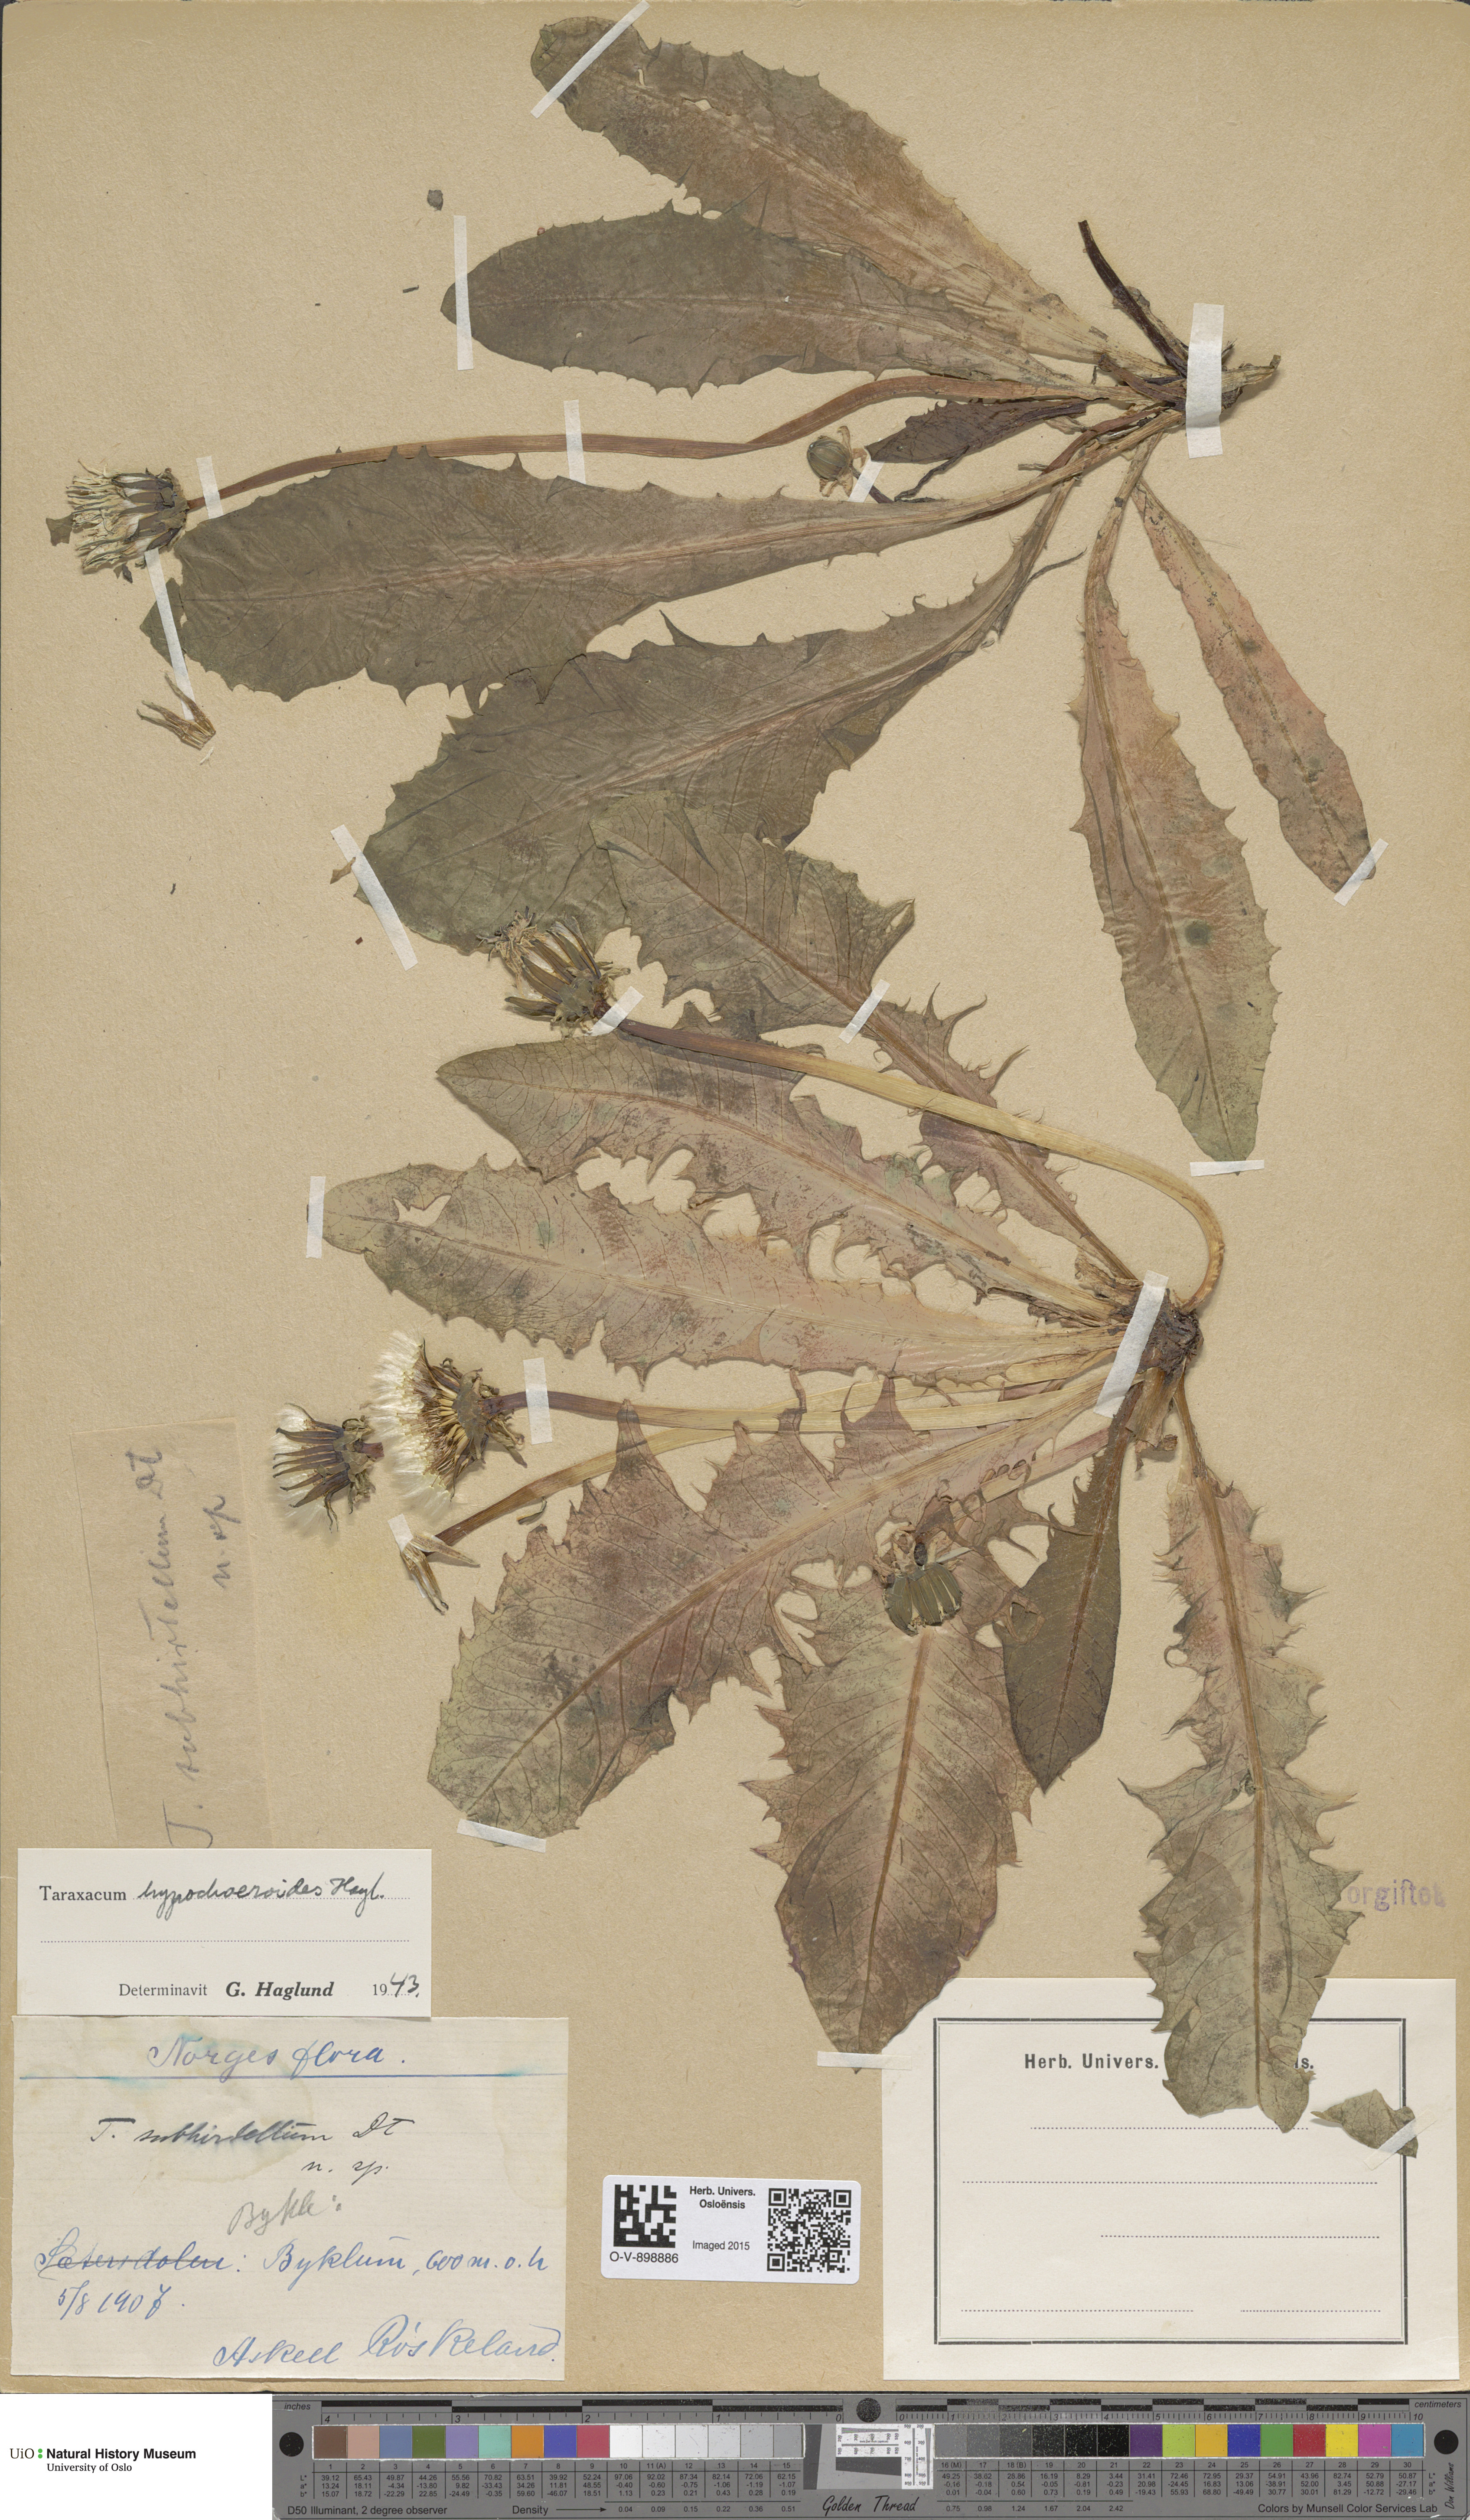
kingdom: Plantae
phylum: Tracheophyta
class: Magnoliopsida
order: Asterales
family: Asteraceae
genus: Taraxacum
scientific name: Taraxacum hypochoeroides
